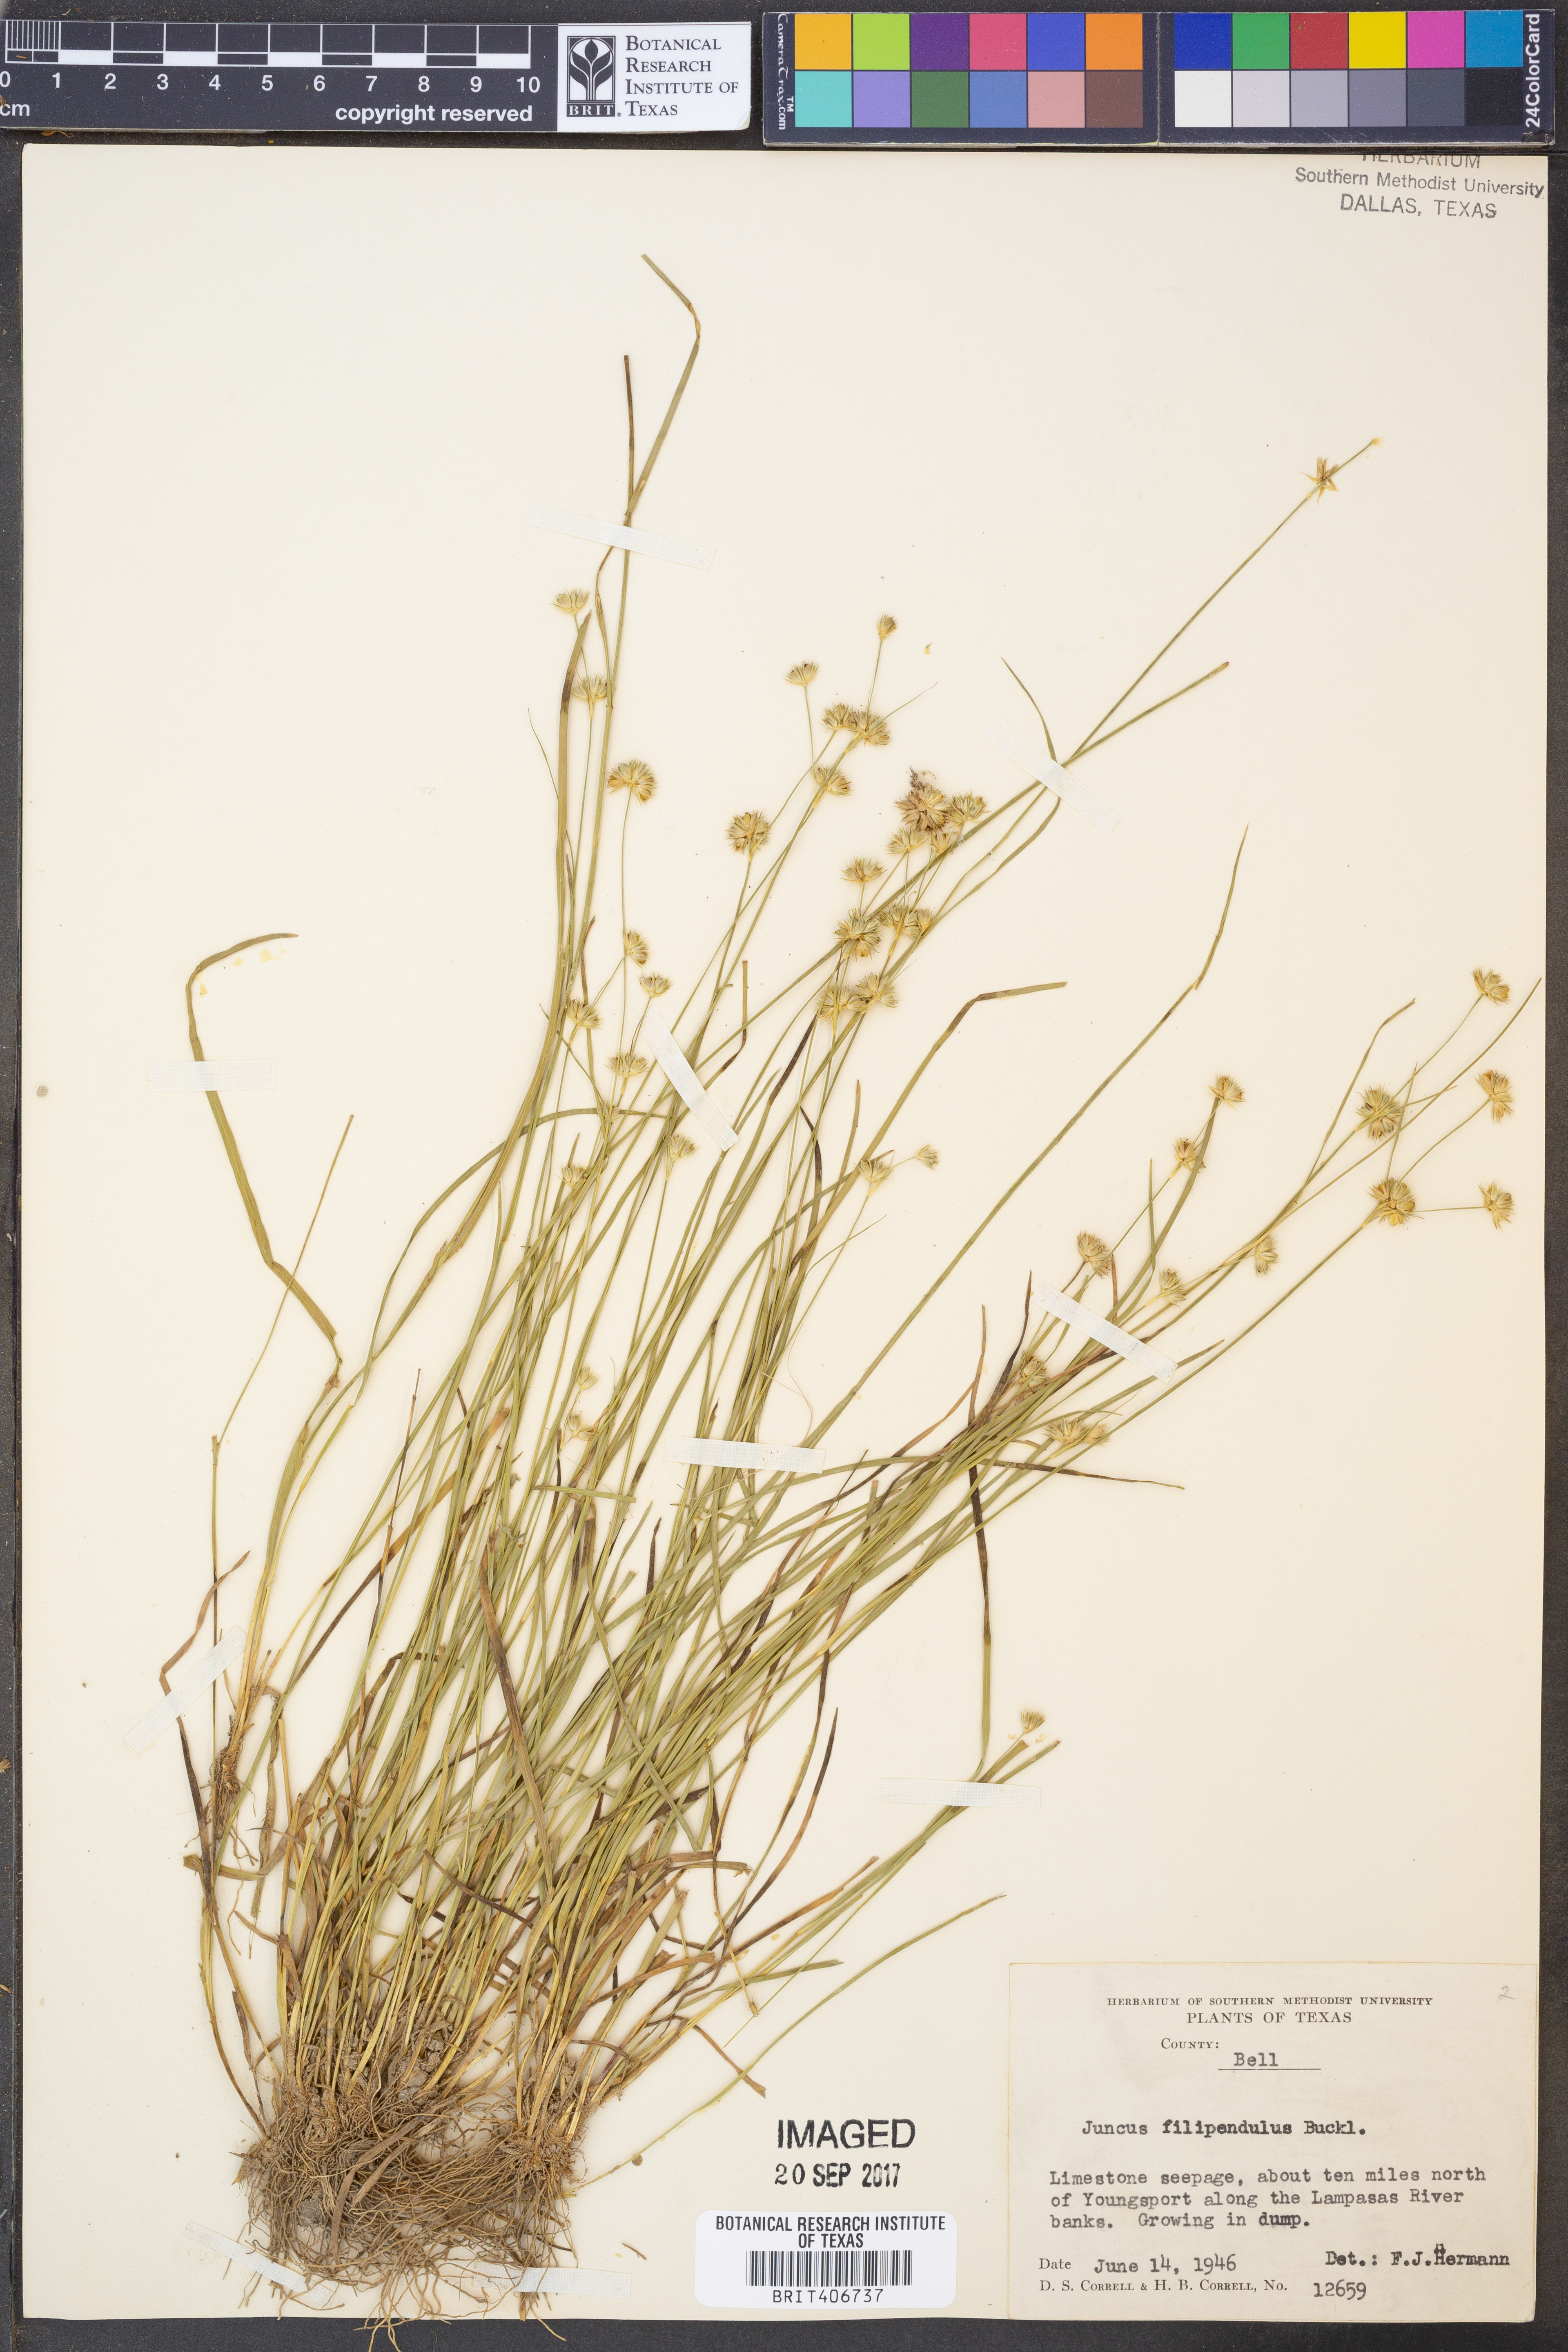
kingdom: Plantae
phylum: Tracheophyta
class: Liliopsida
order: Poales
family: Juncaceae
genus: Juncus
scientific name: Juncus filipendulus
